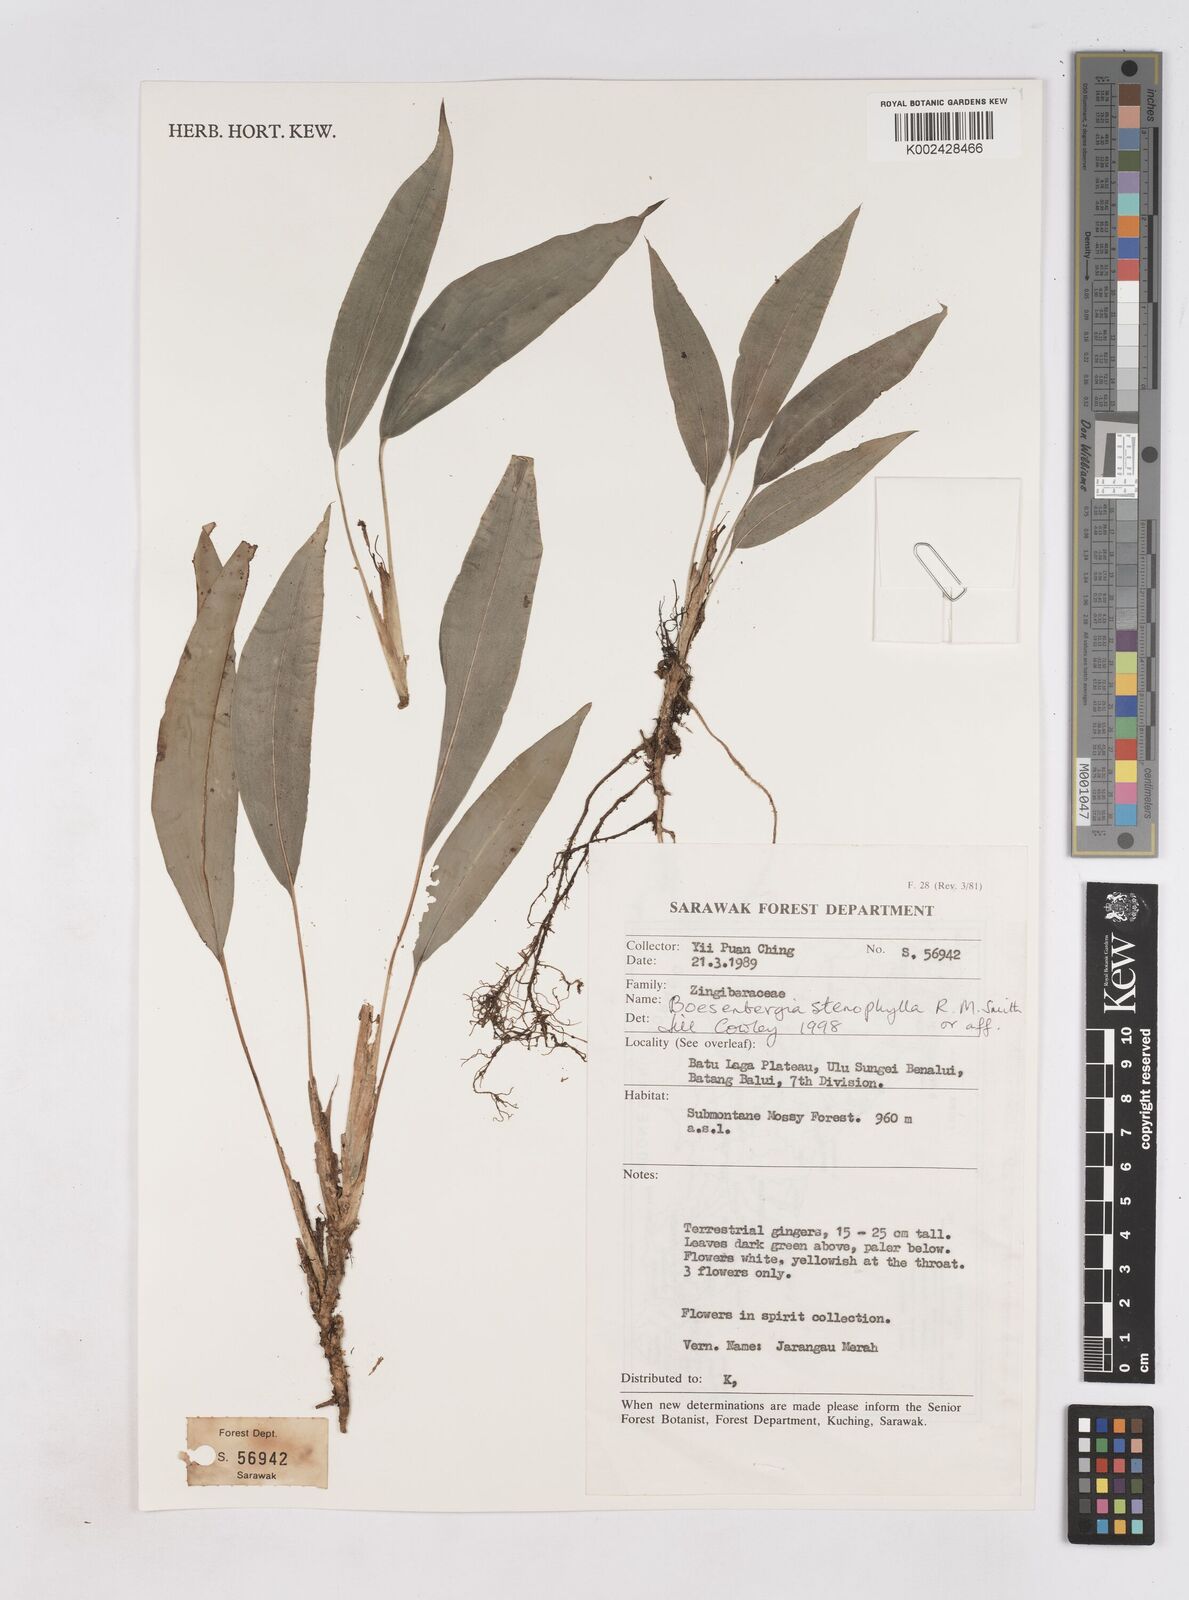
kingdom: Plantae
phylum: Tracheophyta
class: Liliopsida
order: Zingiberales
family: Zingiberaceae
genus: Boesenbergia
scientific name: Boesenbergia stenophylla
